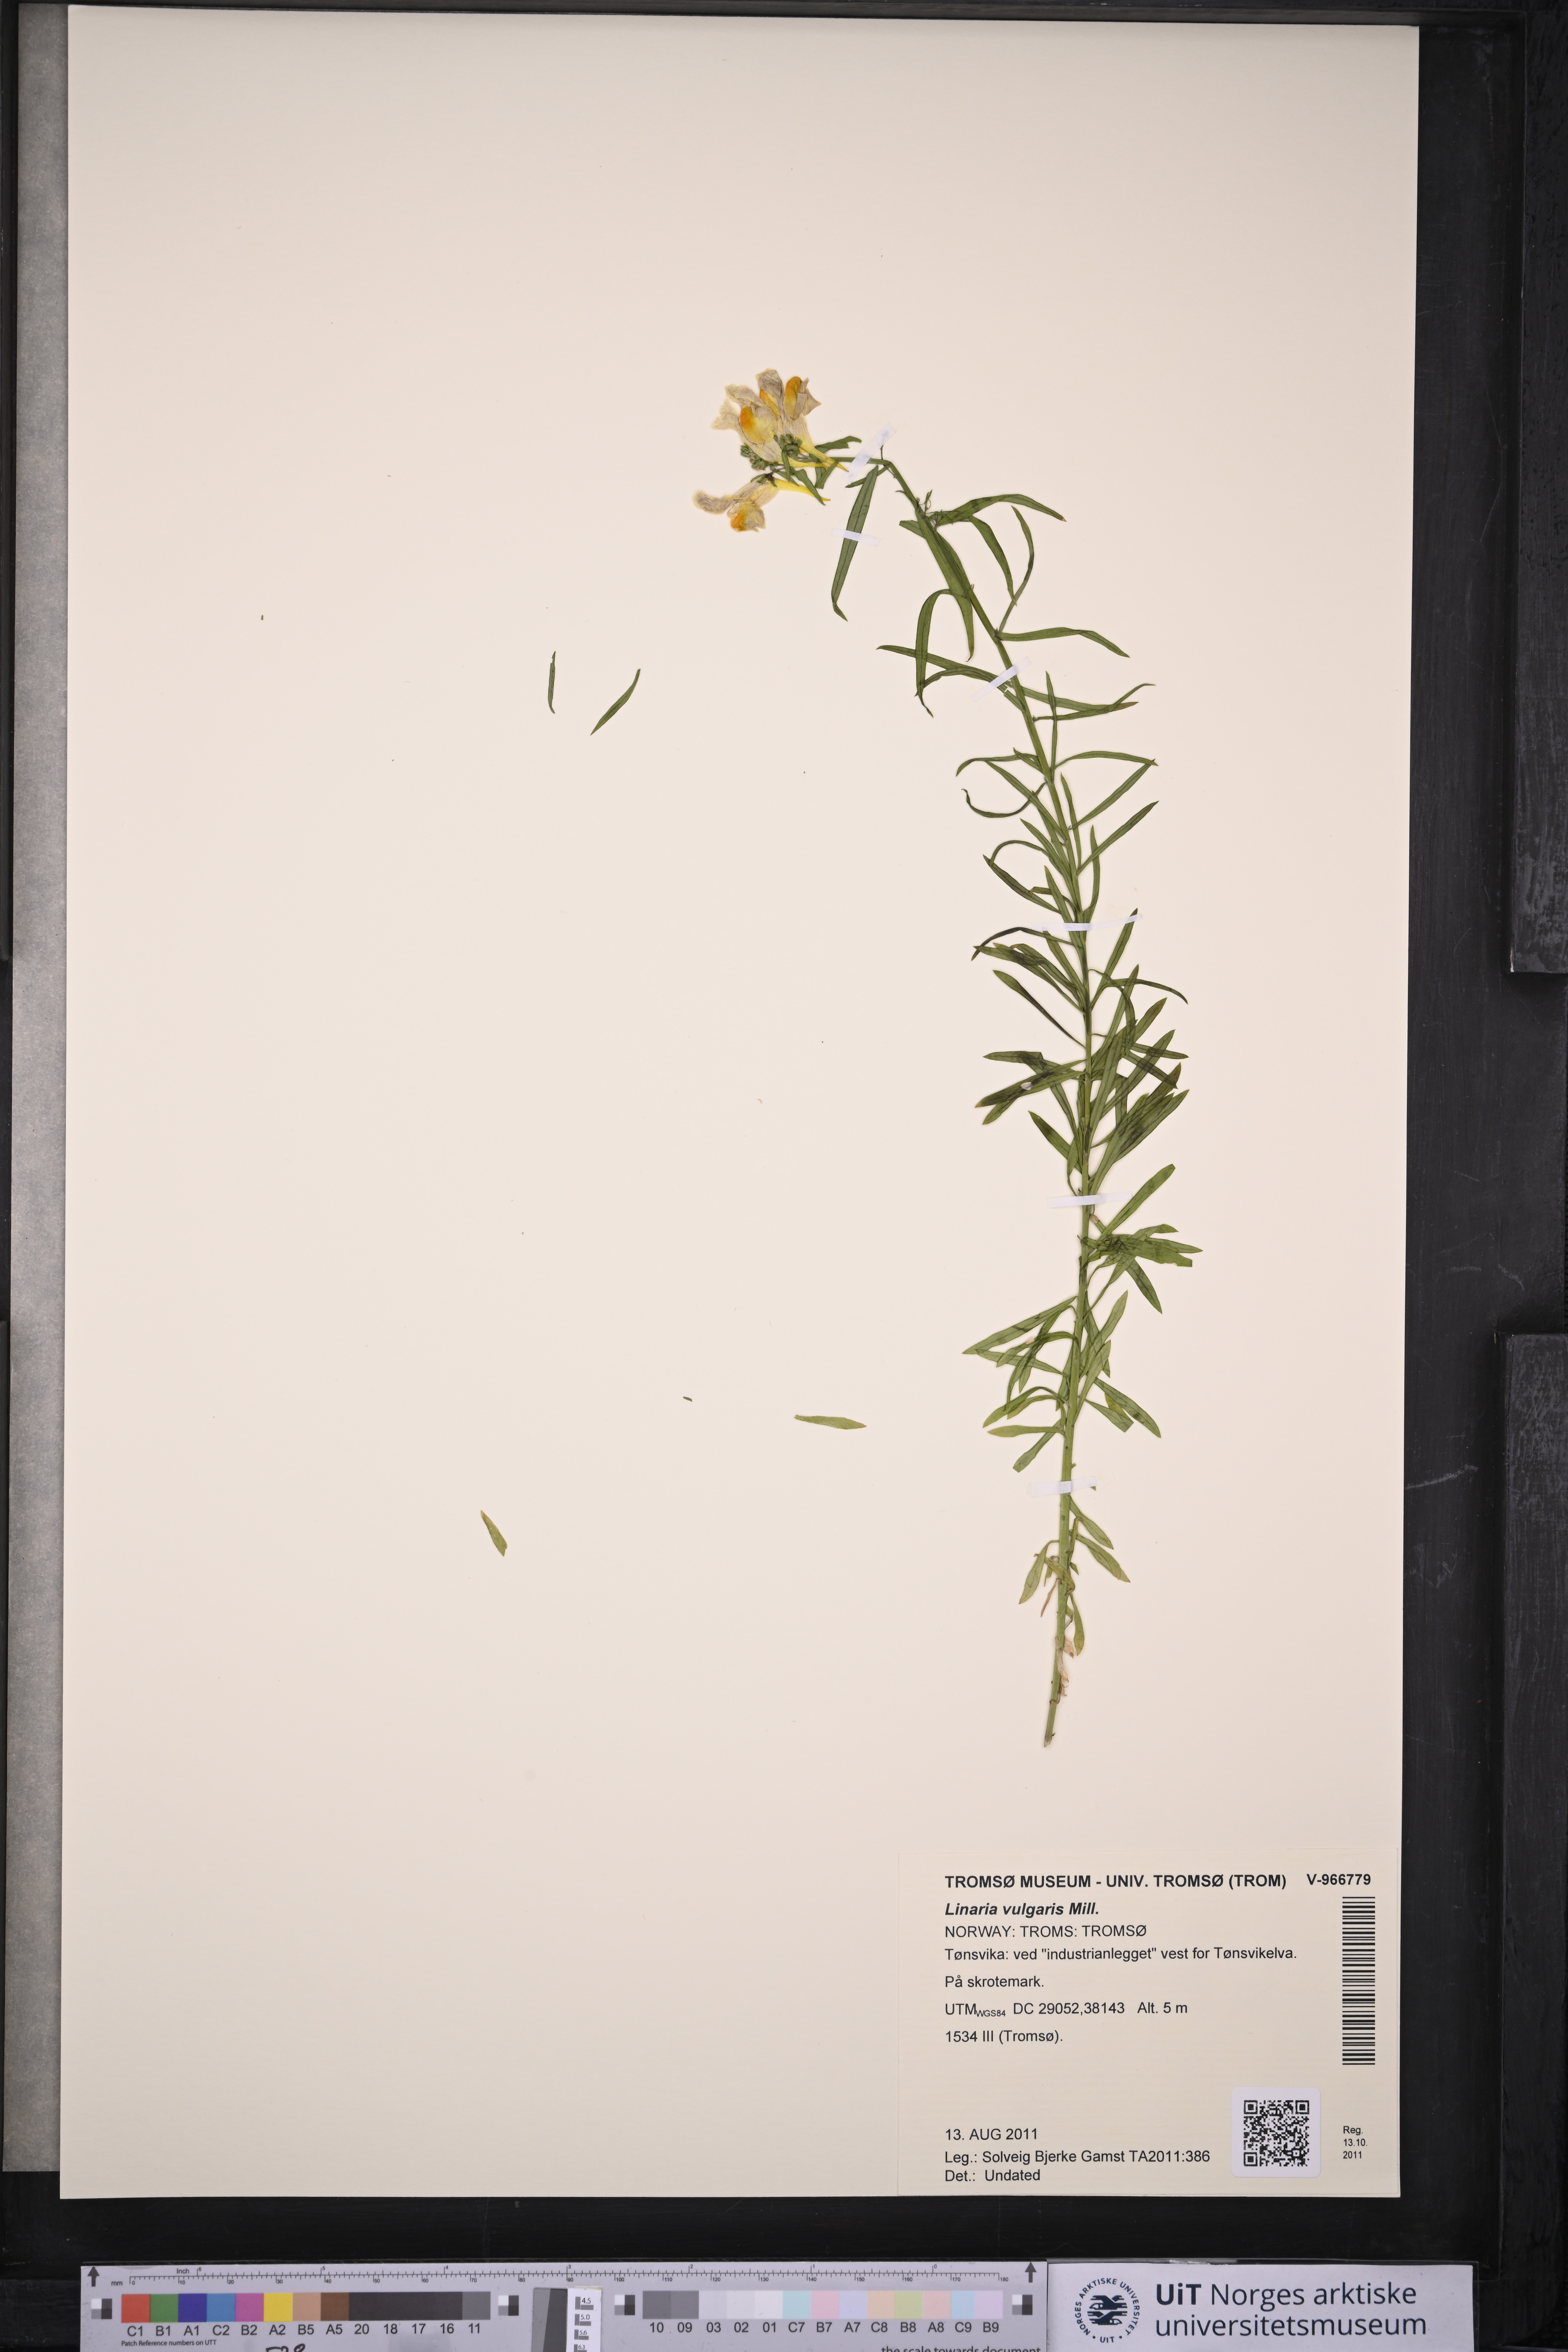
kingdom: Plantae
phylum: Tracheophyta
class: Magnoliopsida
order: Lamiales
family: Plantaginaceae
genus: Linaria
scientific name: Linaria vulgaris
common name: Butter and eggs
